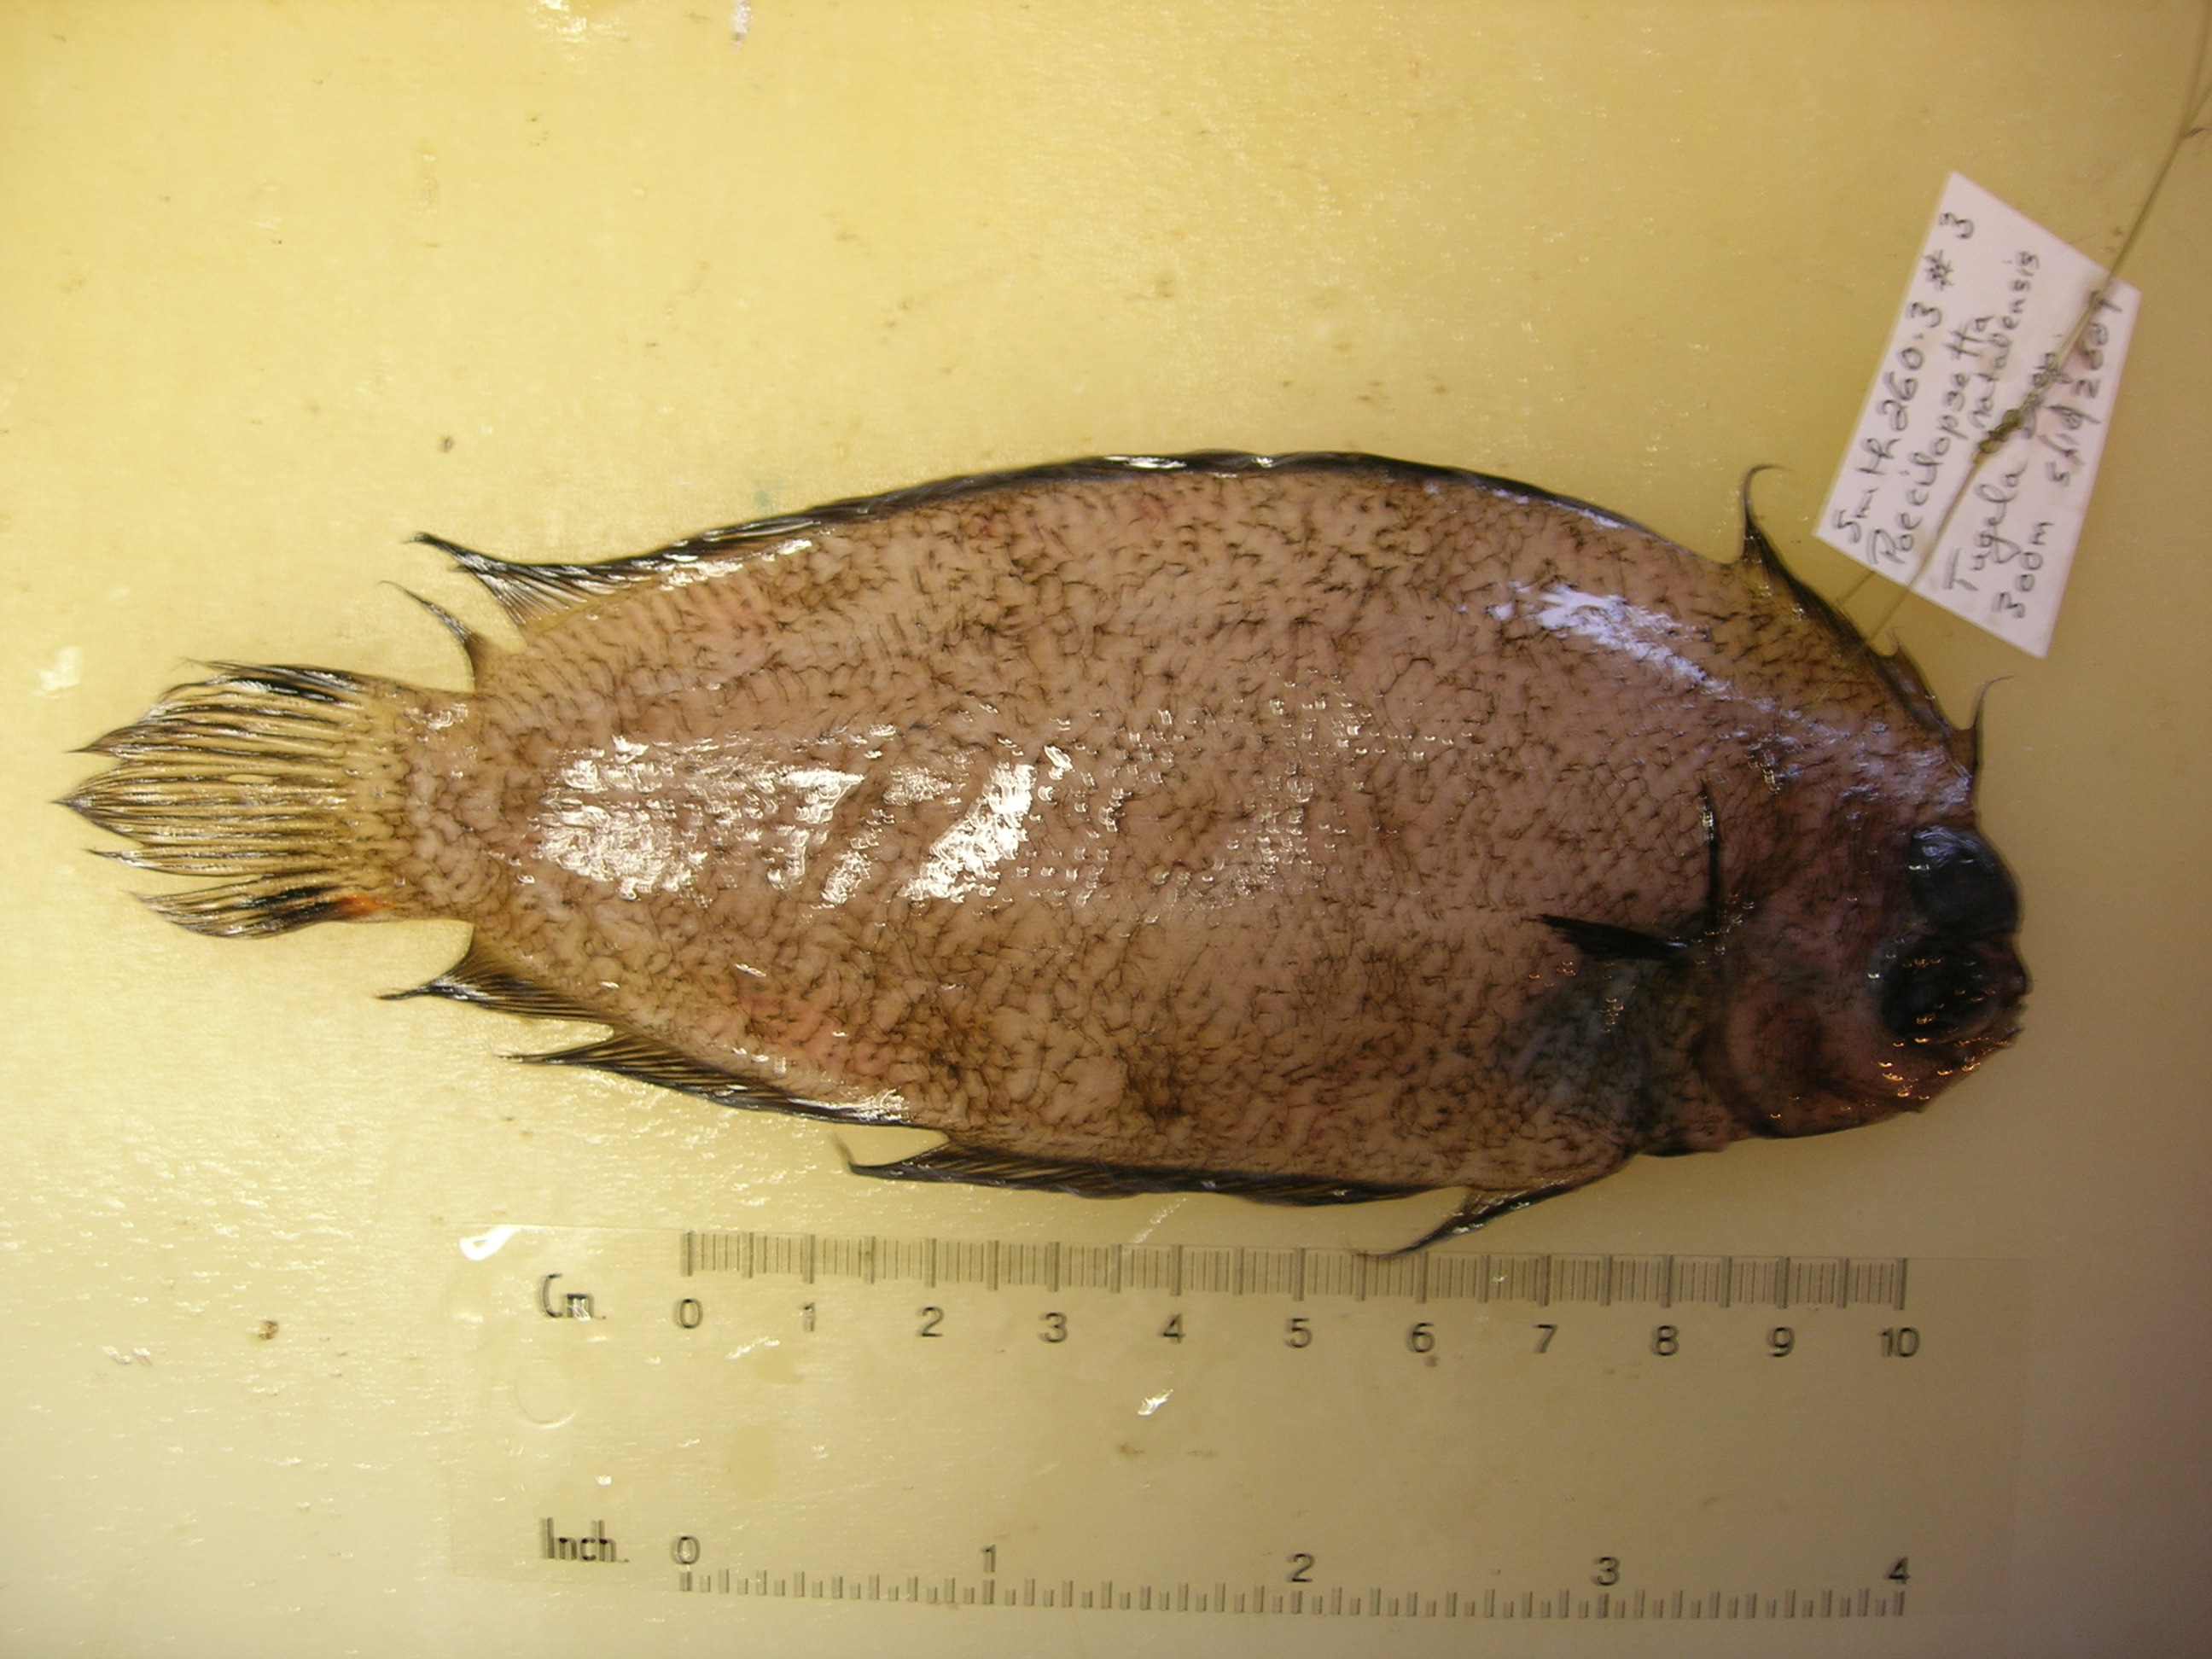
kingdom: Animalia
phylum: Chordata
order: Pleuronectiformes
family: Pleuronectidae
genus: Poecilopsetta
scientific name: Poecilopsetta natalensis
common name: African righteye flounder
